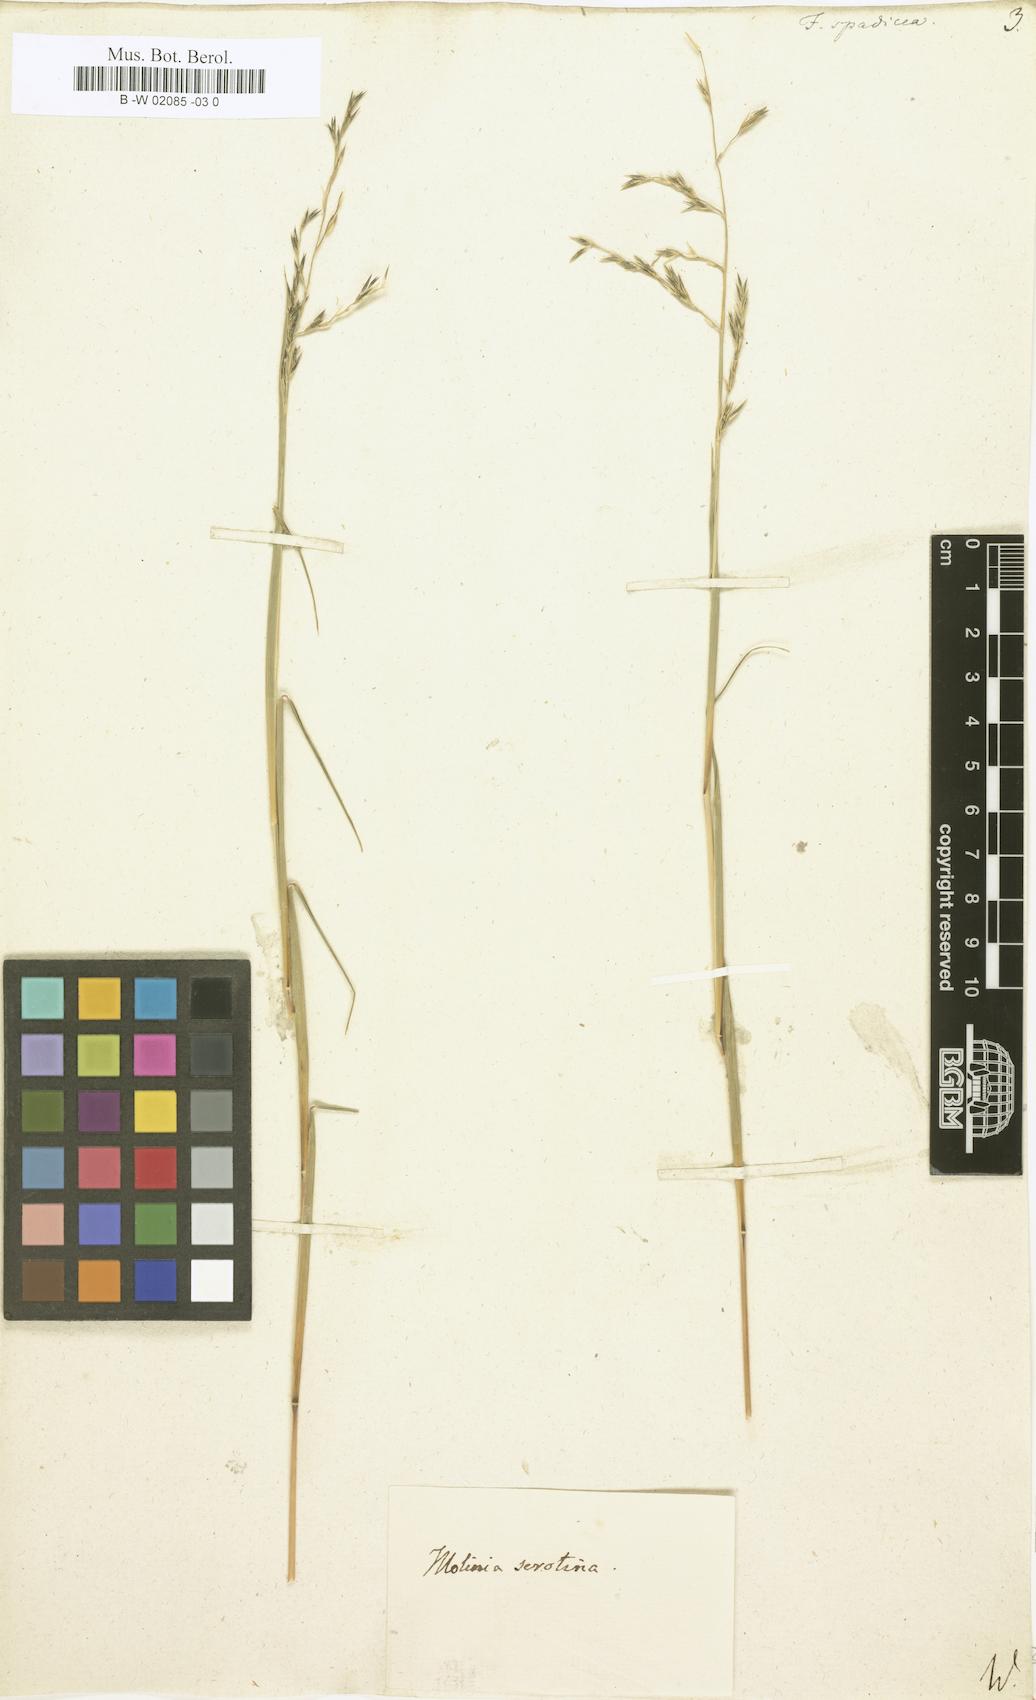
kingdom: Plantae
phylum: Tracheophyta
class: Liliopsida
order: Poales
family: Poaceae
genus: Festuca
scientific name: Festuca spadicea
